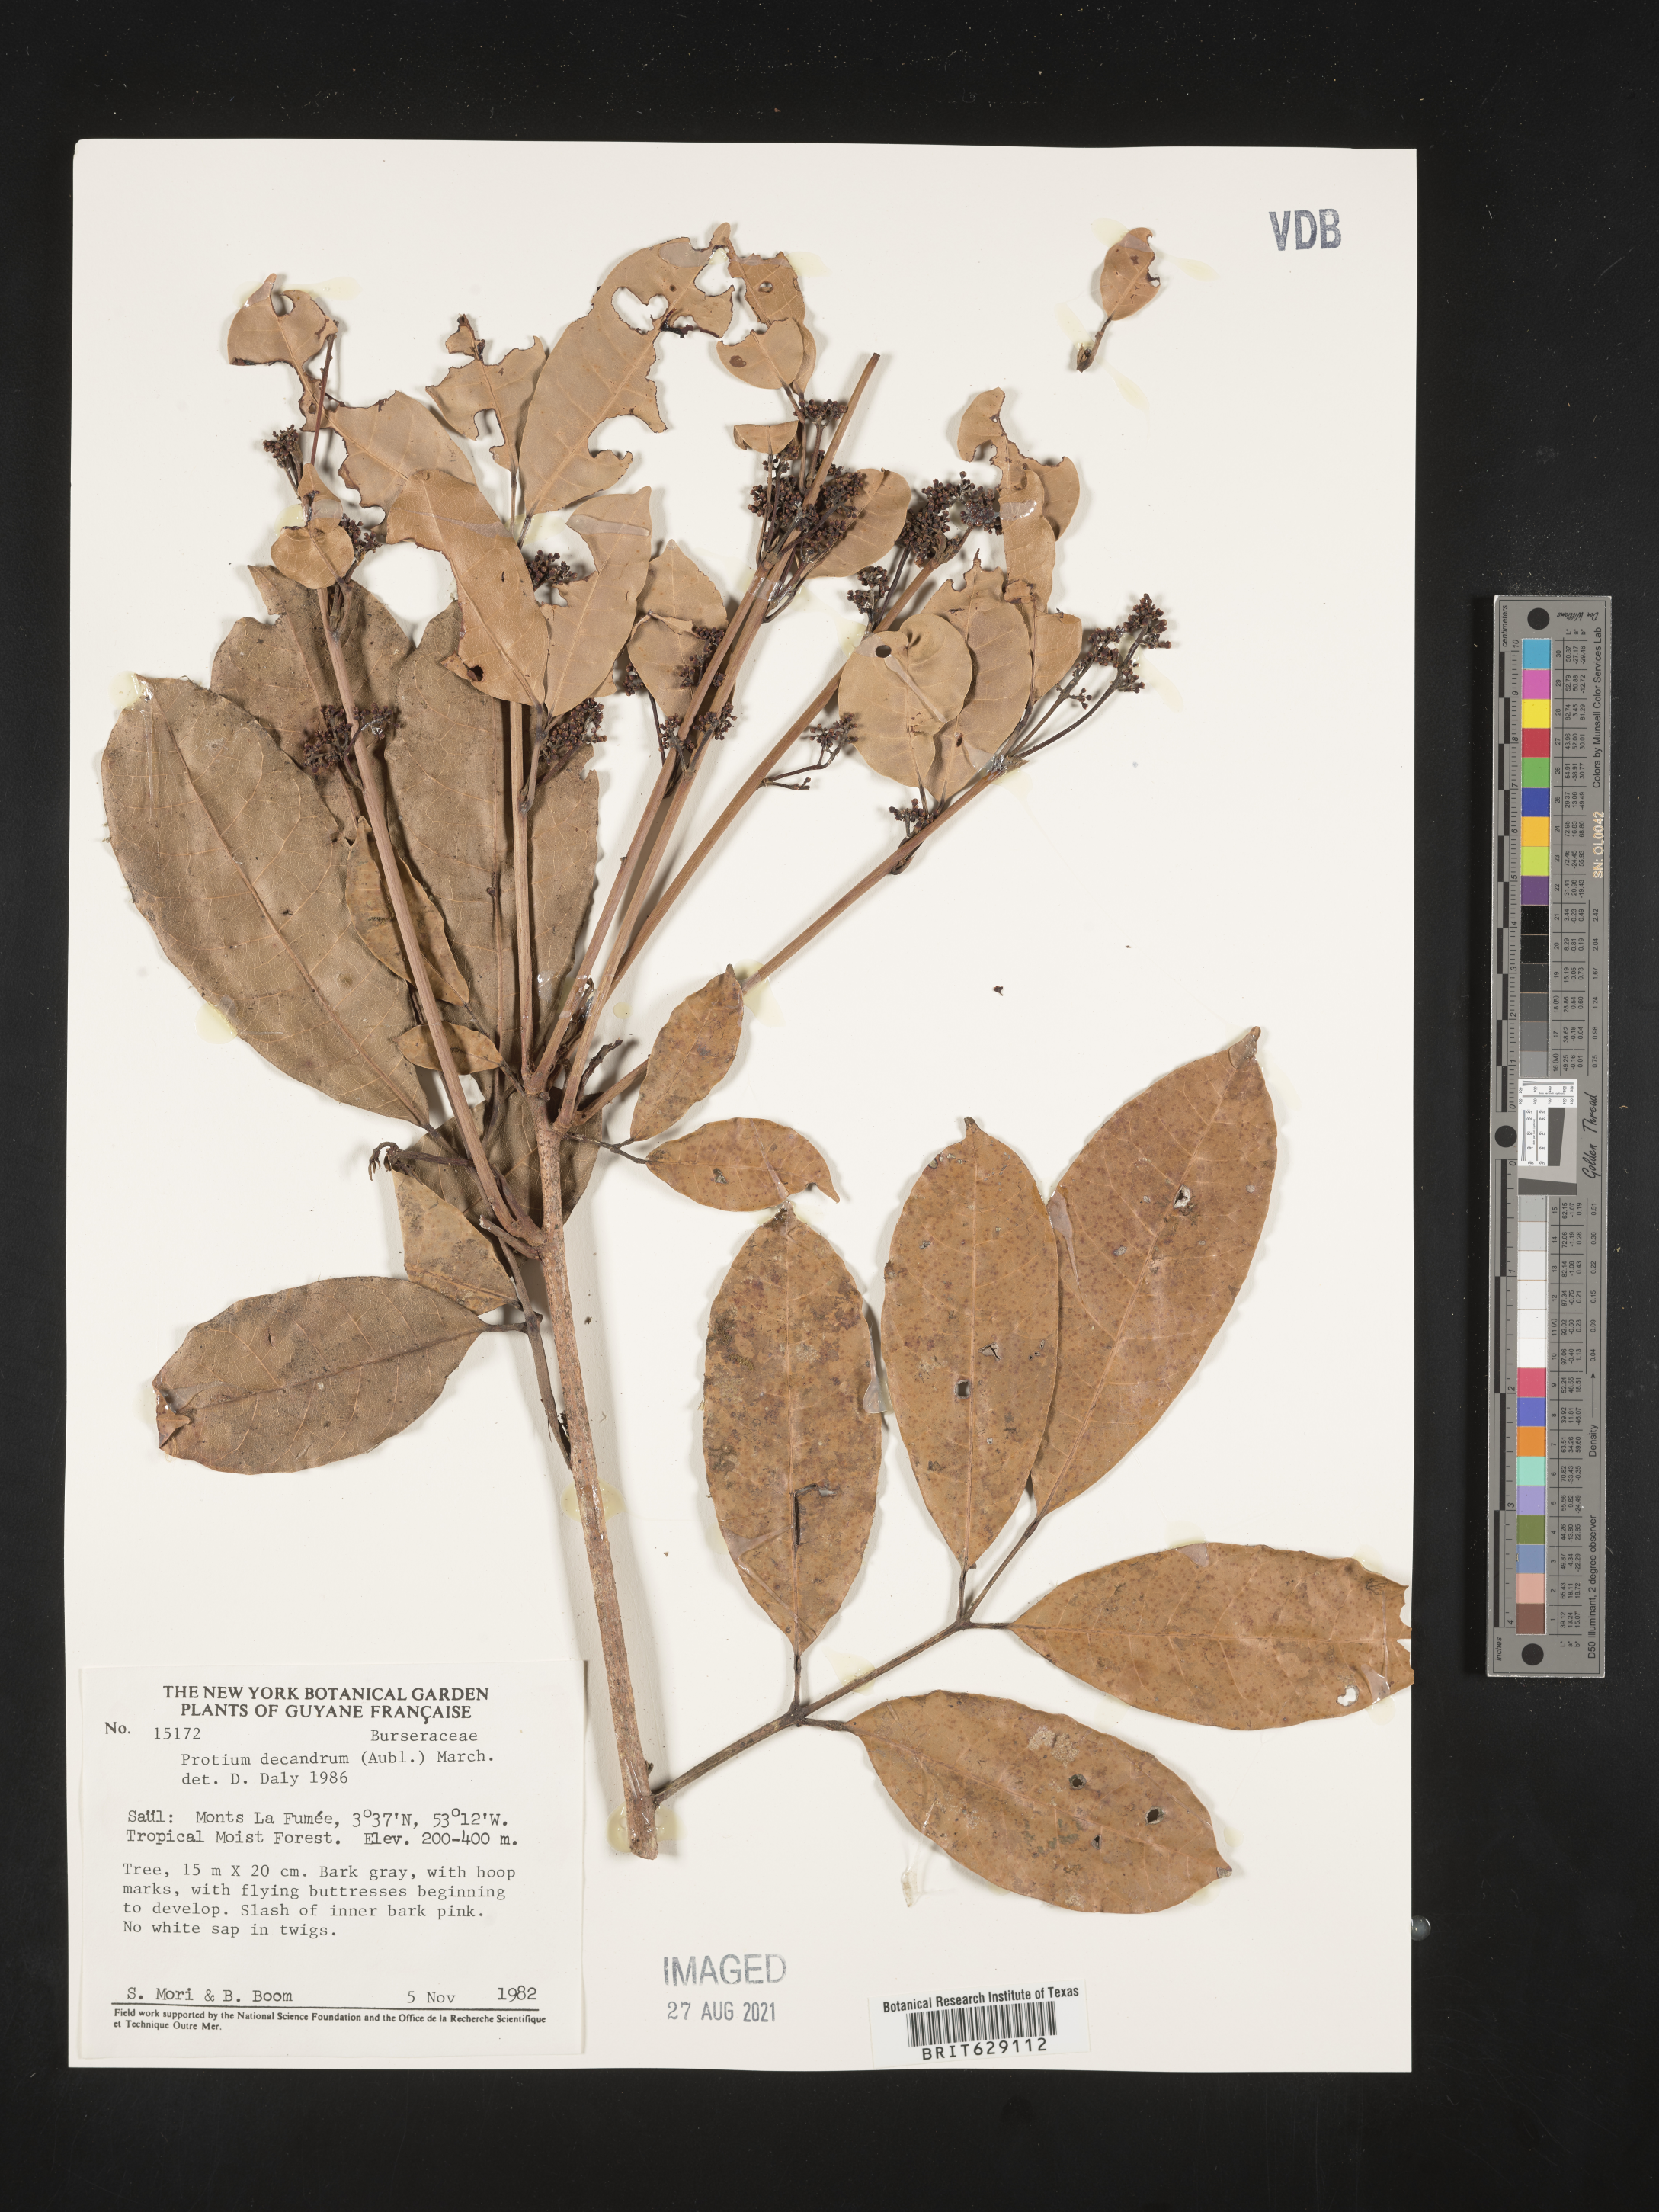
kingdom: Plantae
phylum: Tracheophyta
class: Magnoliopsida
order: Sapindales
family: Burseraceae
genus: Protium
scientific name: Protium decandrum
